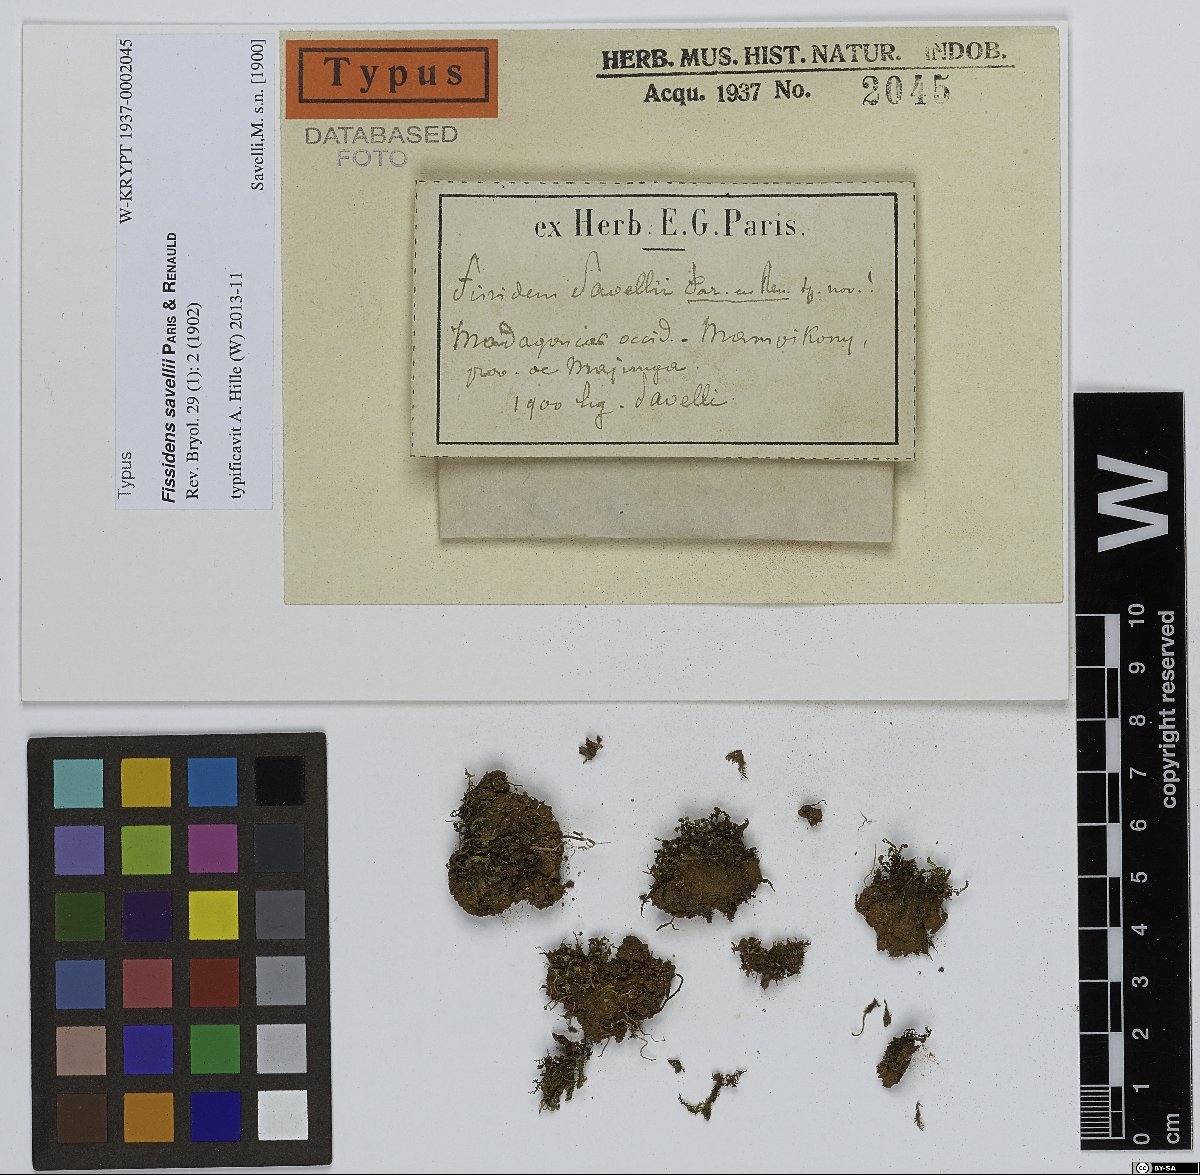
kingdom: Plantae
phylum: Bryophyta
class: Bryopsida
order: Dicranales
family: Fissidentaceae
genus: Fissidens
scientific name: Fissidens crispulus
